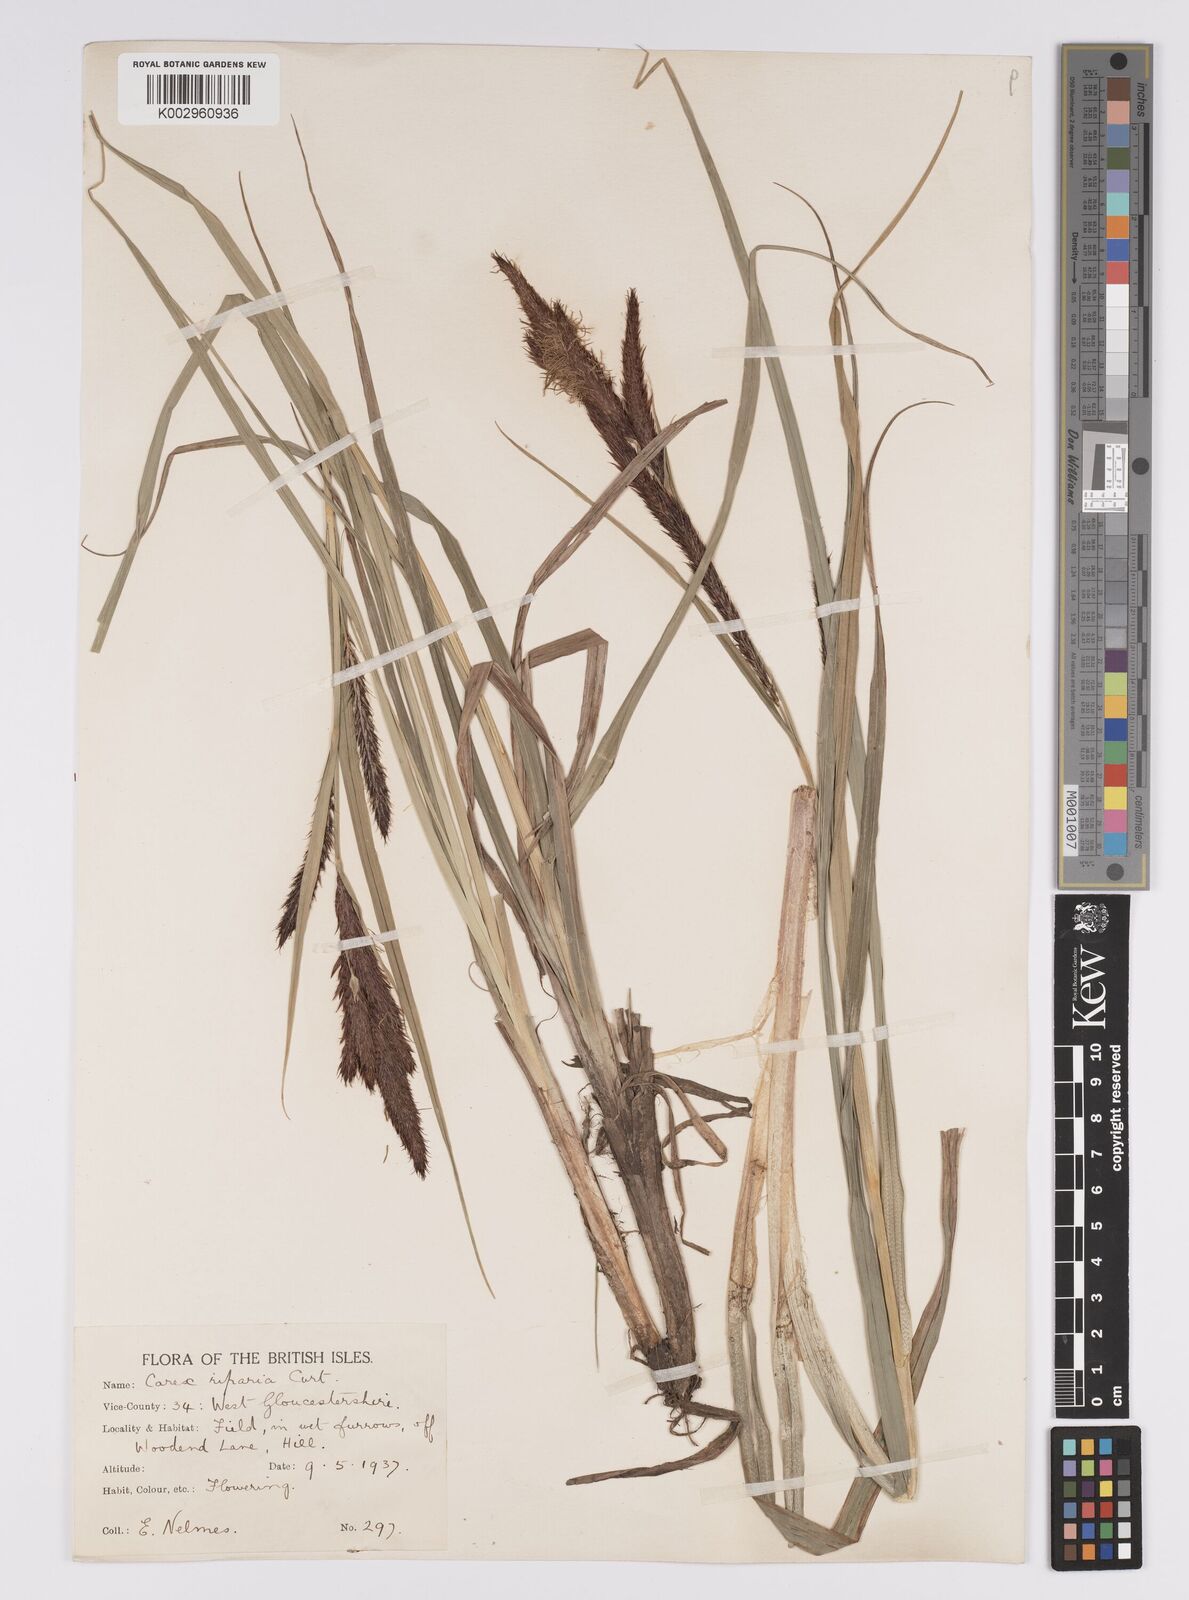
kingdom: Plantae
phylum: Tracheophyta
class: Liliopsida
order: Poales
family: Cyperaceae
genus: Carex
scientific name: Carex riparia
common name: Greater pond-sedge
